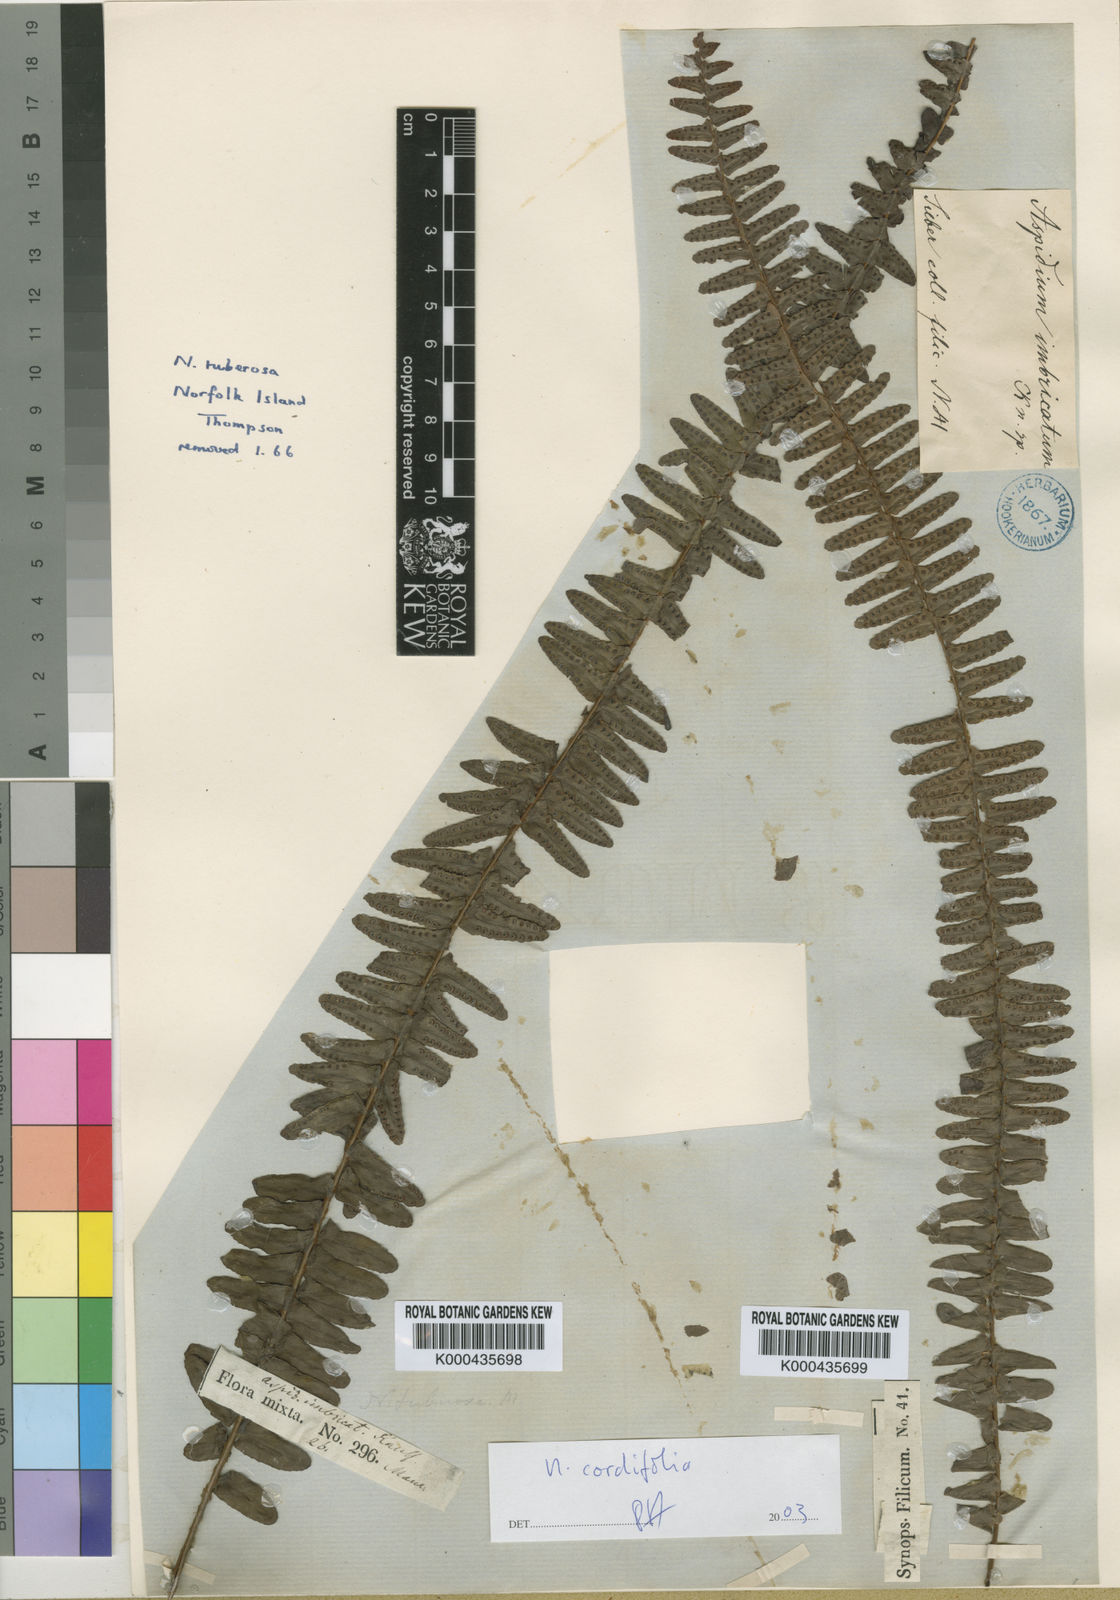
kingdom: Plantae
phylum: Tracheophyta
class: Polypodiopsida
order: Polypodiales
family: Nephrolepidaceae
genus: Nephrolepis
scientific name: Nephrolepis cordifolia
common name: Narrow swordfern
